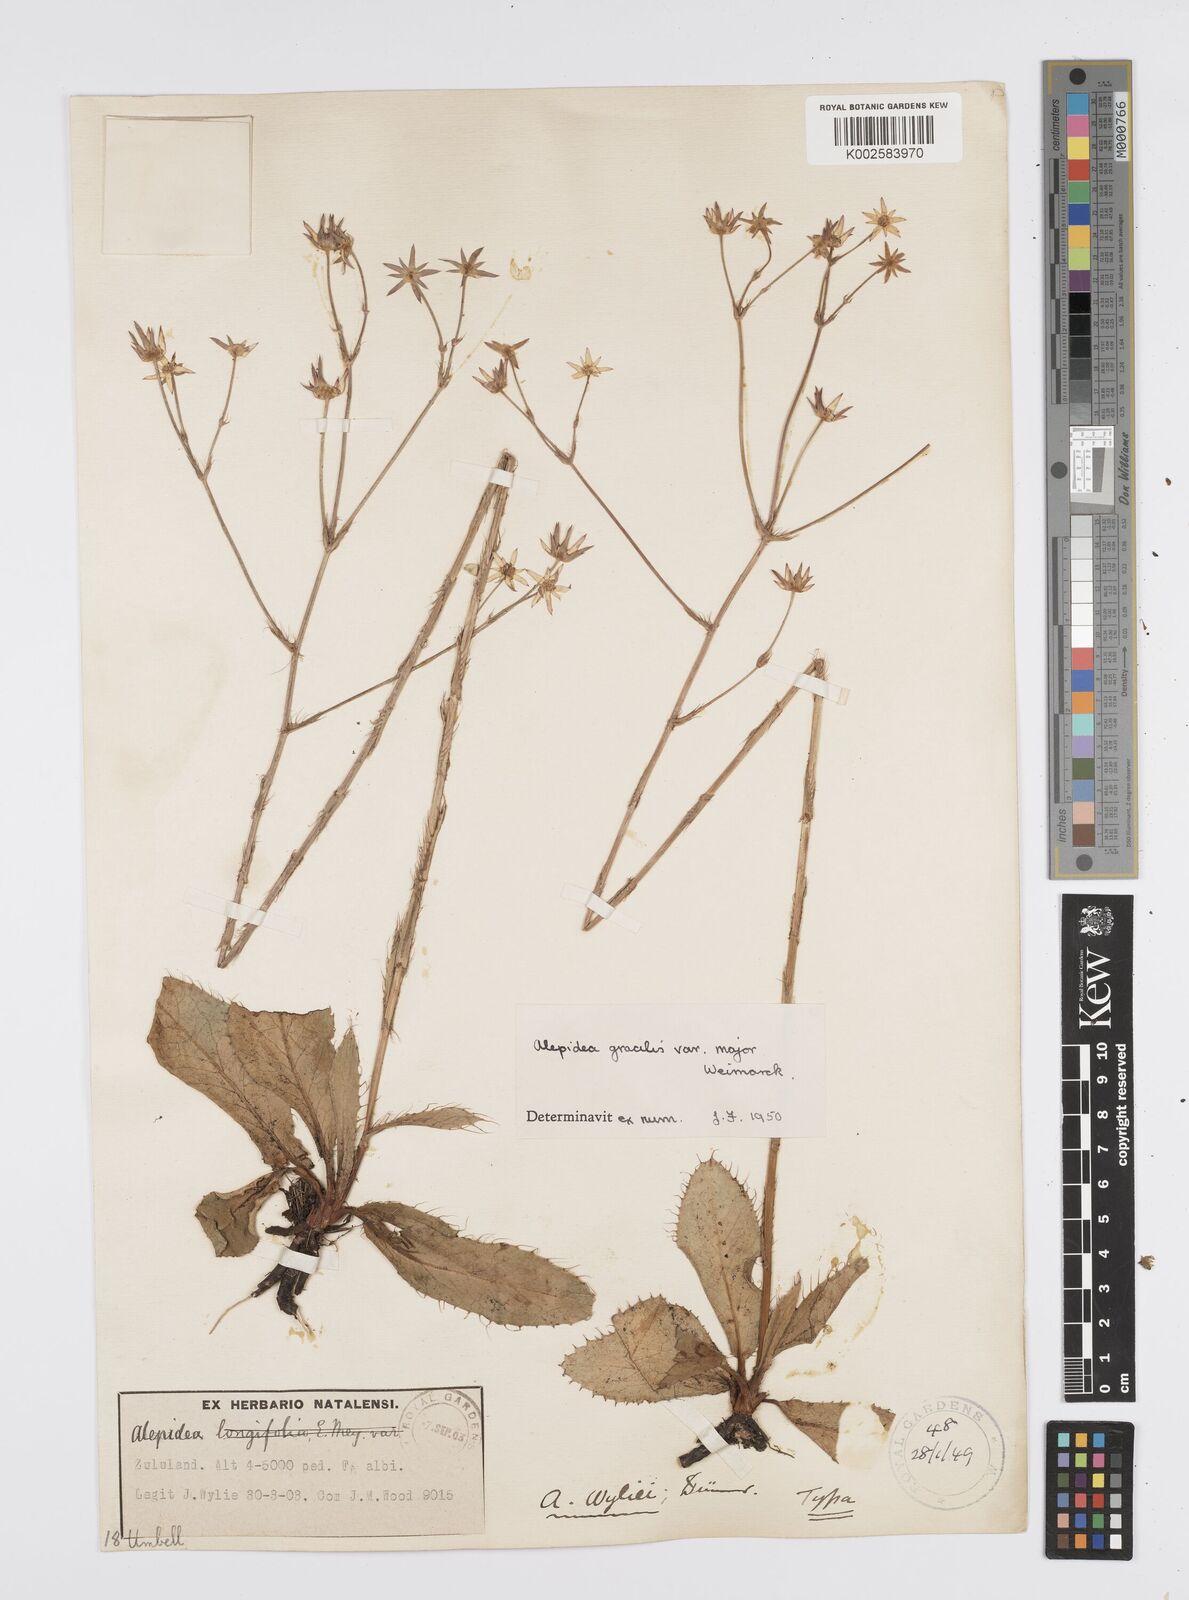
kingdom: Plantae
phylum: Tracheophyta
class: Magnoliopsida
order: Apiales
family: Apiaceae
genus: Alepidea
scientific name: Alepidea
